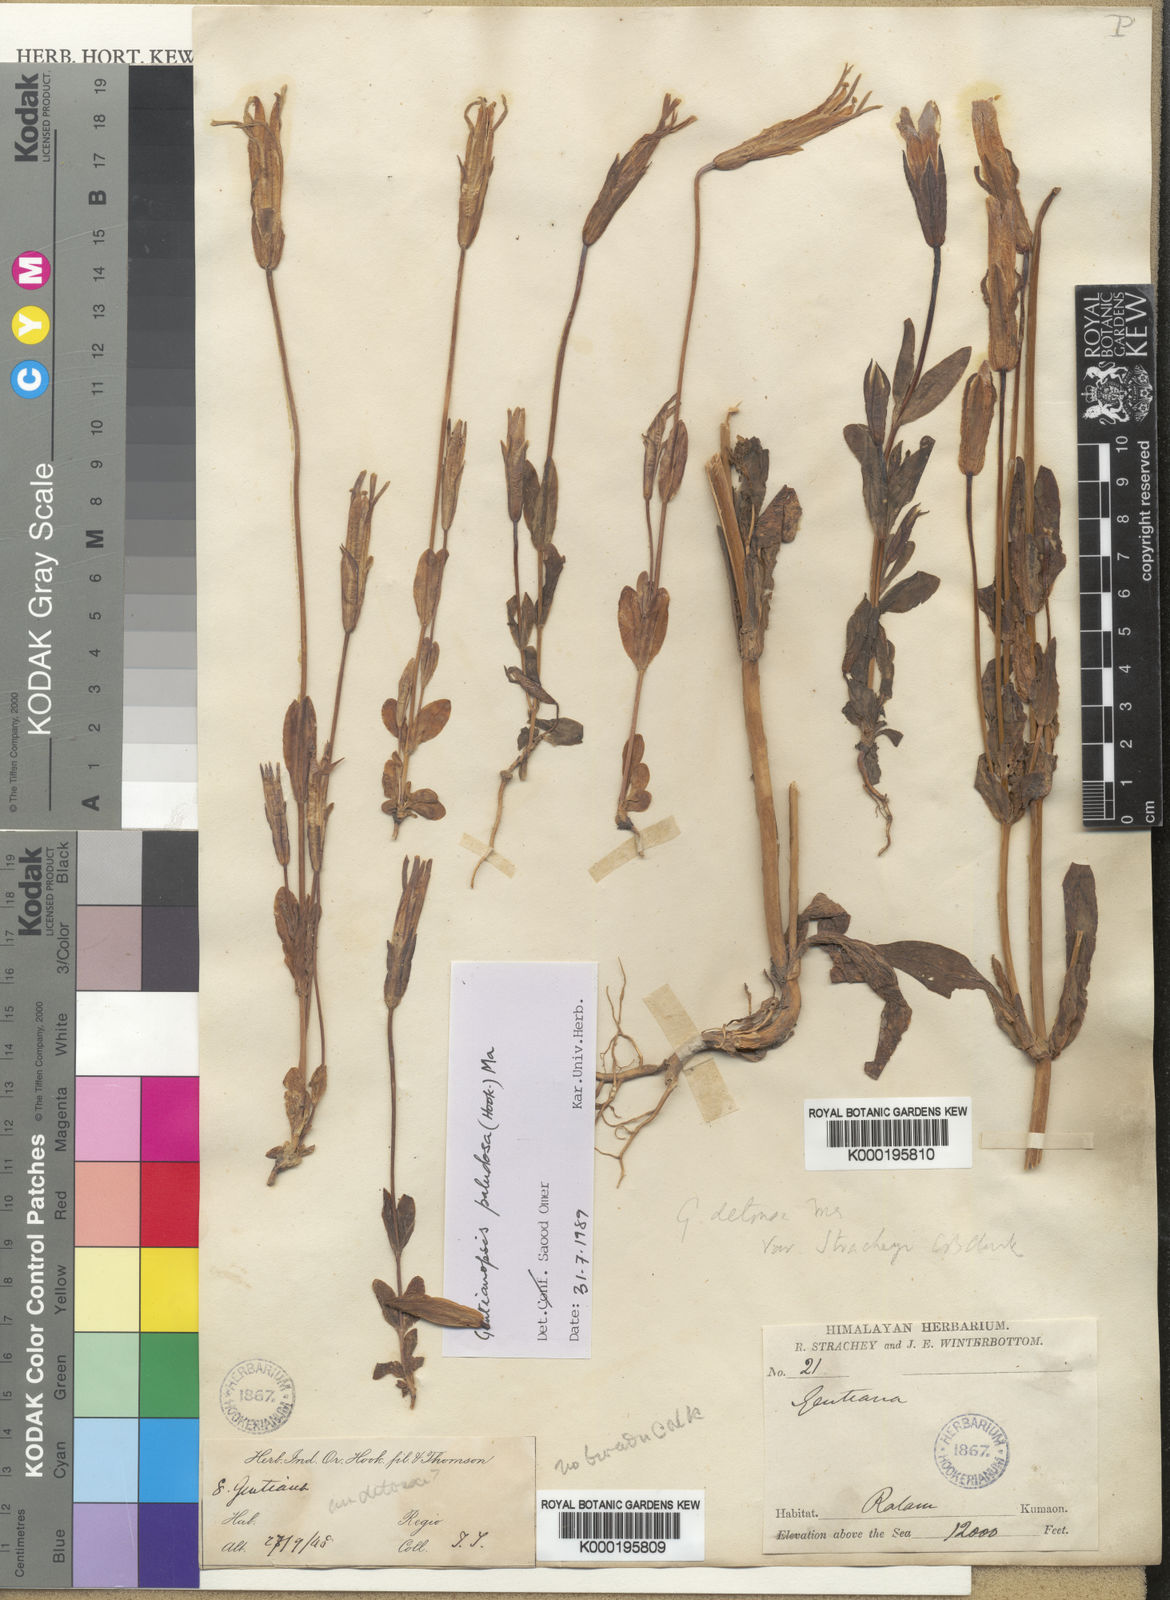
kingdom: Plantae
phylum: Tracheophyta
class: Magnoliopsida
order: Gentianales
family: Gentianaceae
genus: Gentianopsis
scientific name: Gentianopsis paludosa
